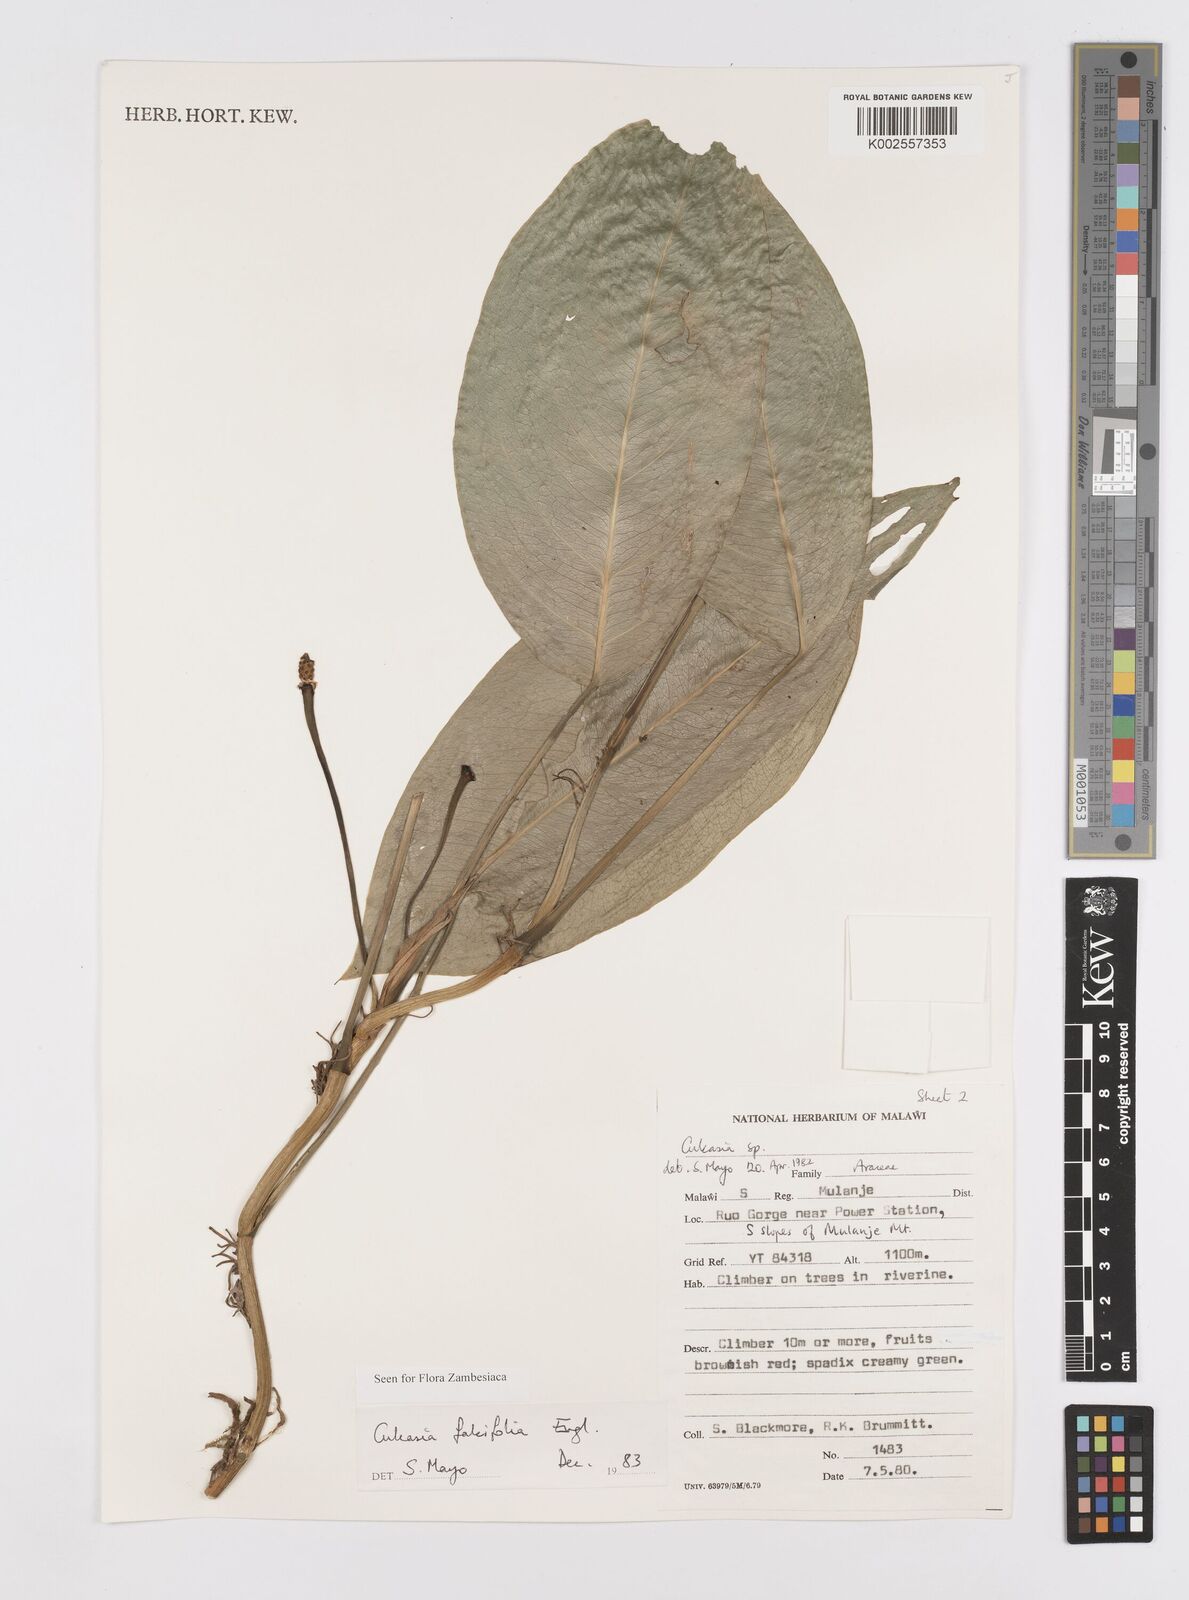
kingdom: Plantae
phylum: Tracheophyta
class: Liliopsida
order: Alismatales
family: Araceae
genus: Culcasia
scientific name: Culcasia falcifolia
